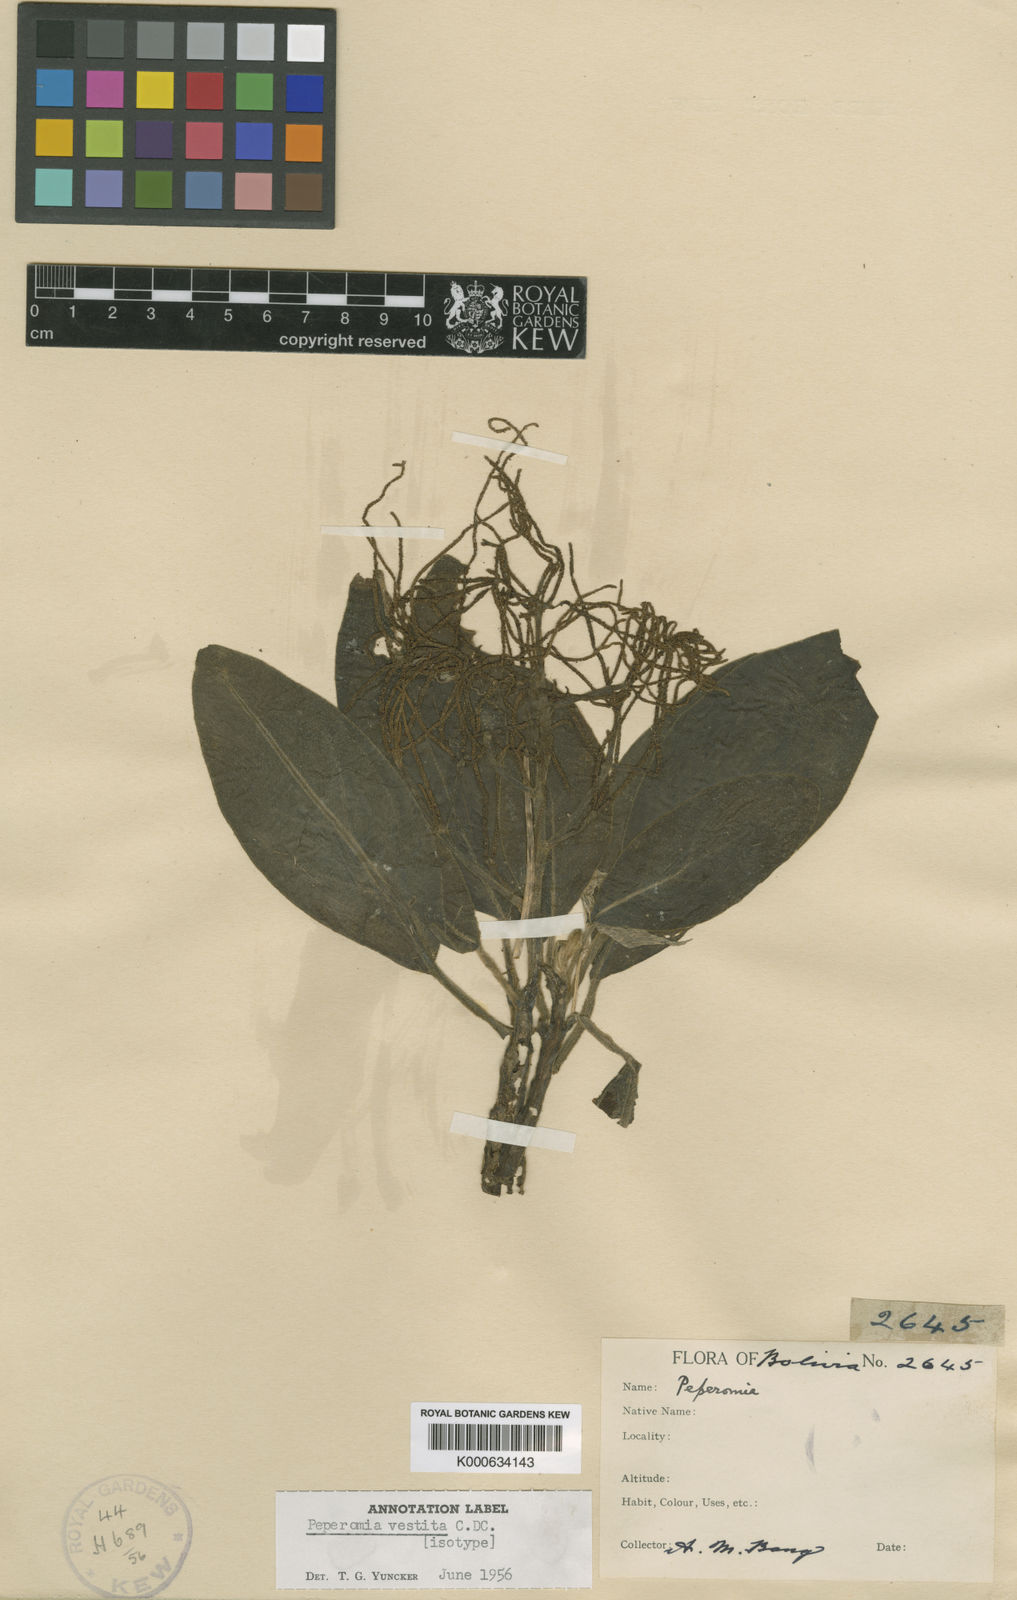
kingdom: Plantae
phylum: Tracheophyta
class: Magnoliopsida
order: Piperales
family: Piperaceae
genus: Peperomia
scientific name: Peperomia vestita
